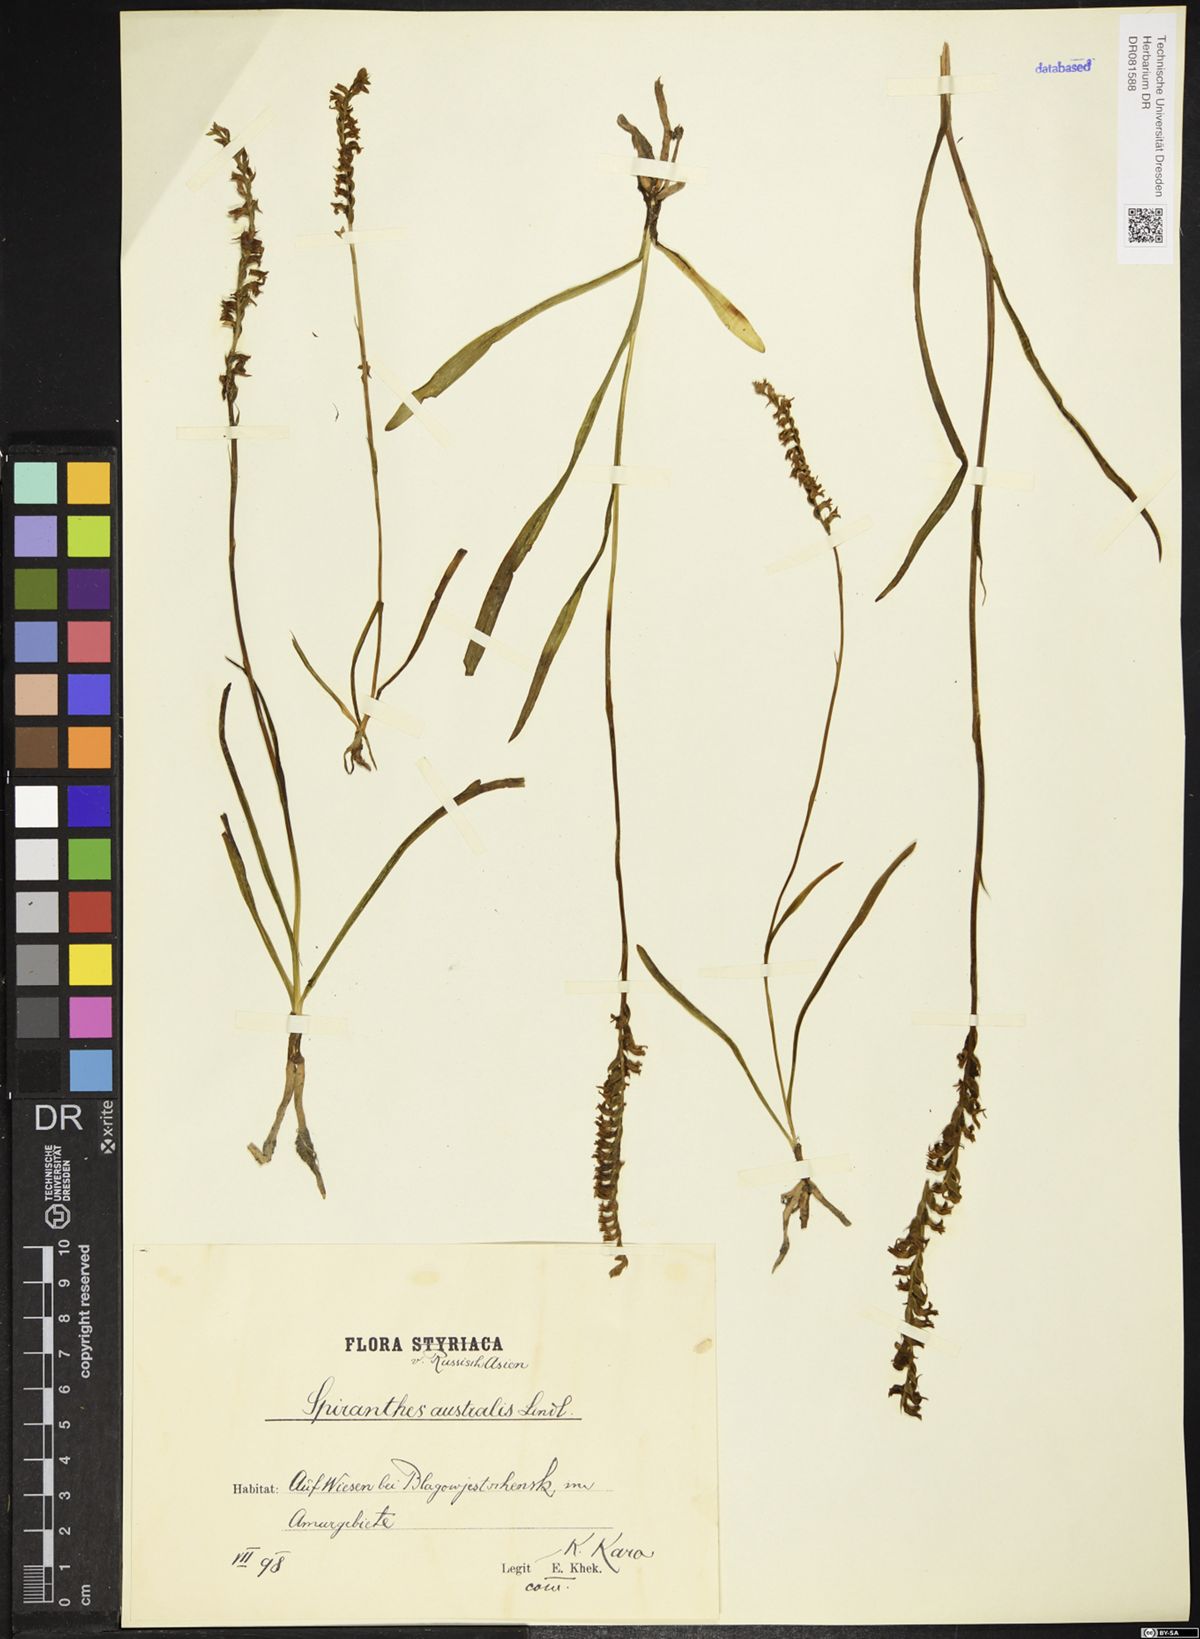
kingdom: Plantae
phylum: Tracheophyta
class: Liliopsida
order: Asparagales
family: Orchidaceae
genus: Spiranthes
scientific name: Spiranthes australis
